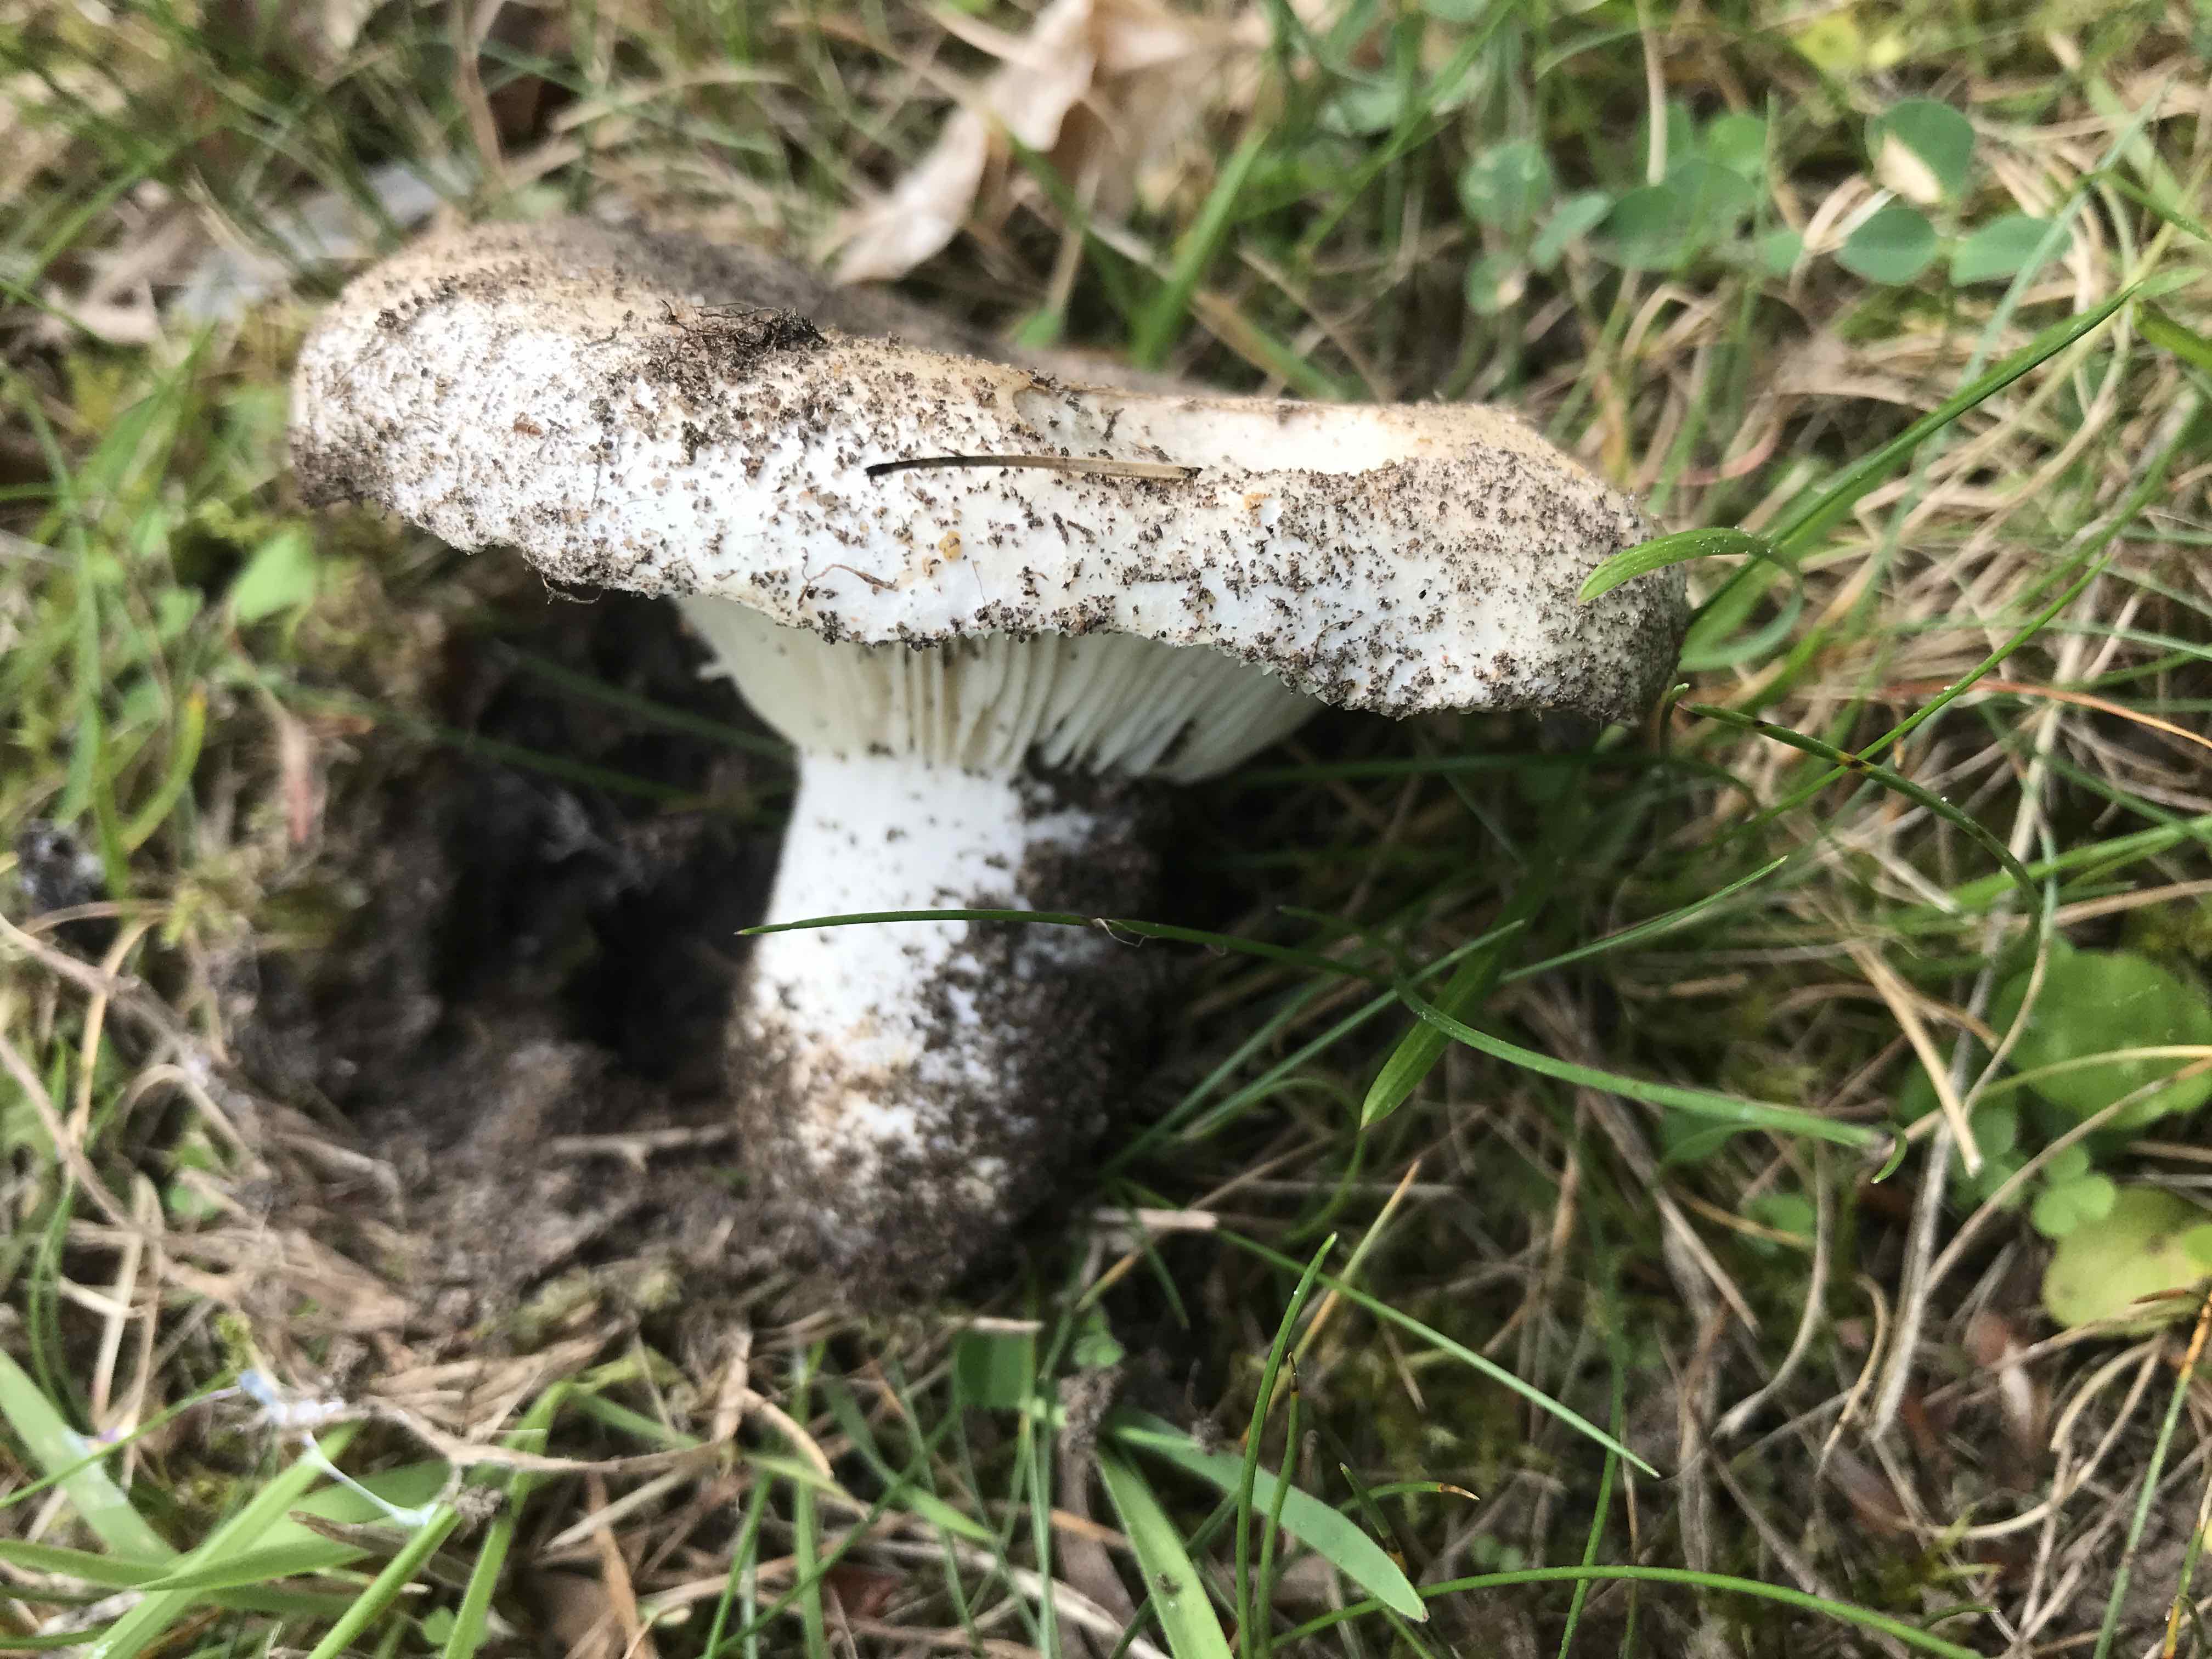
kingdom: Fungi
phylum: Basidiomycota
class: Agaricomycetes
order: Russulales
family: Russulaceae
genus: Russula
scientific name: Russula delica
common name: almindelig tragt-skørhat
